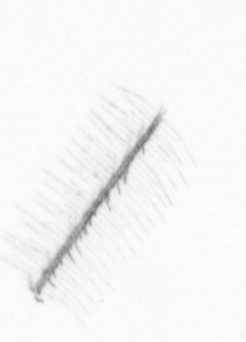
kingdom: Chromista
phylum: Ochrophyta
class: Bacillariophyceae
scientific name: Bacillariophyceae
